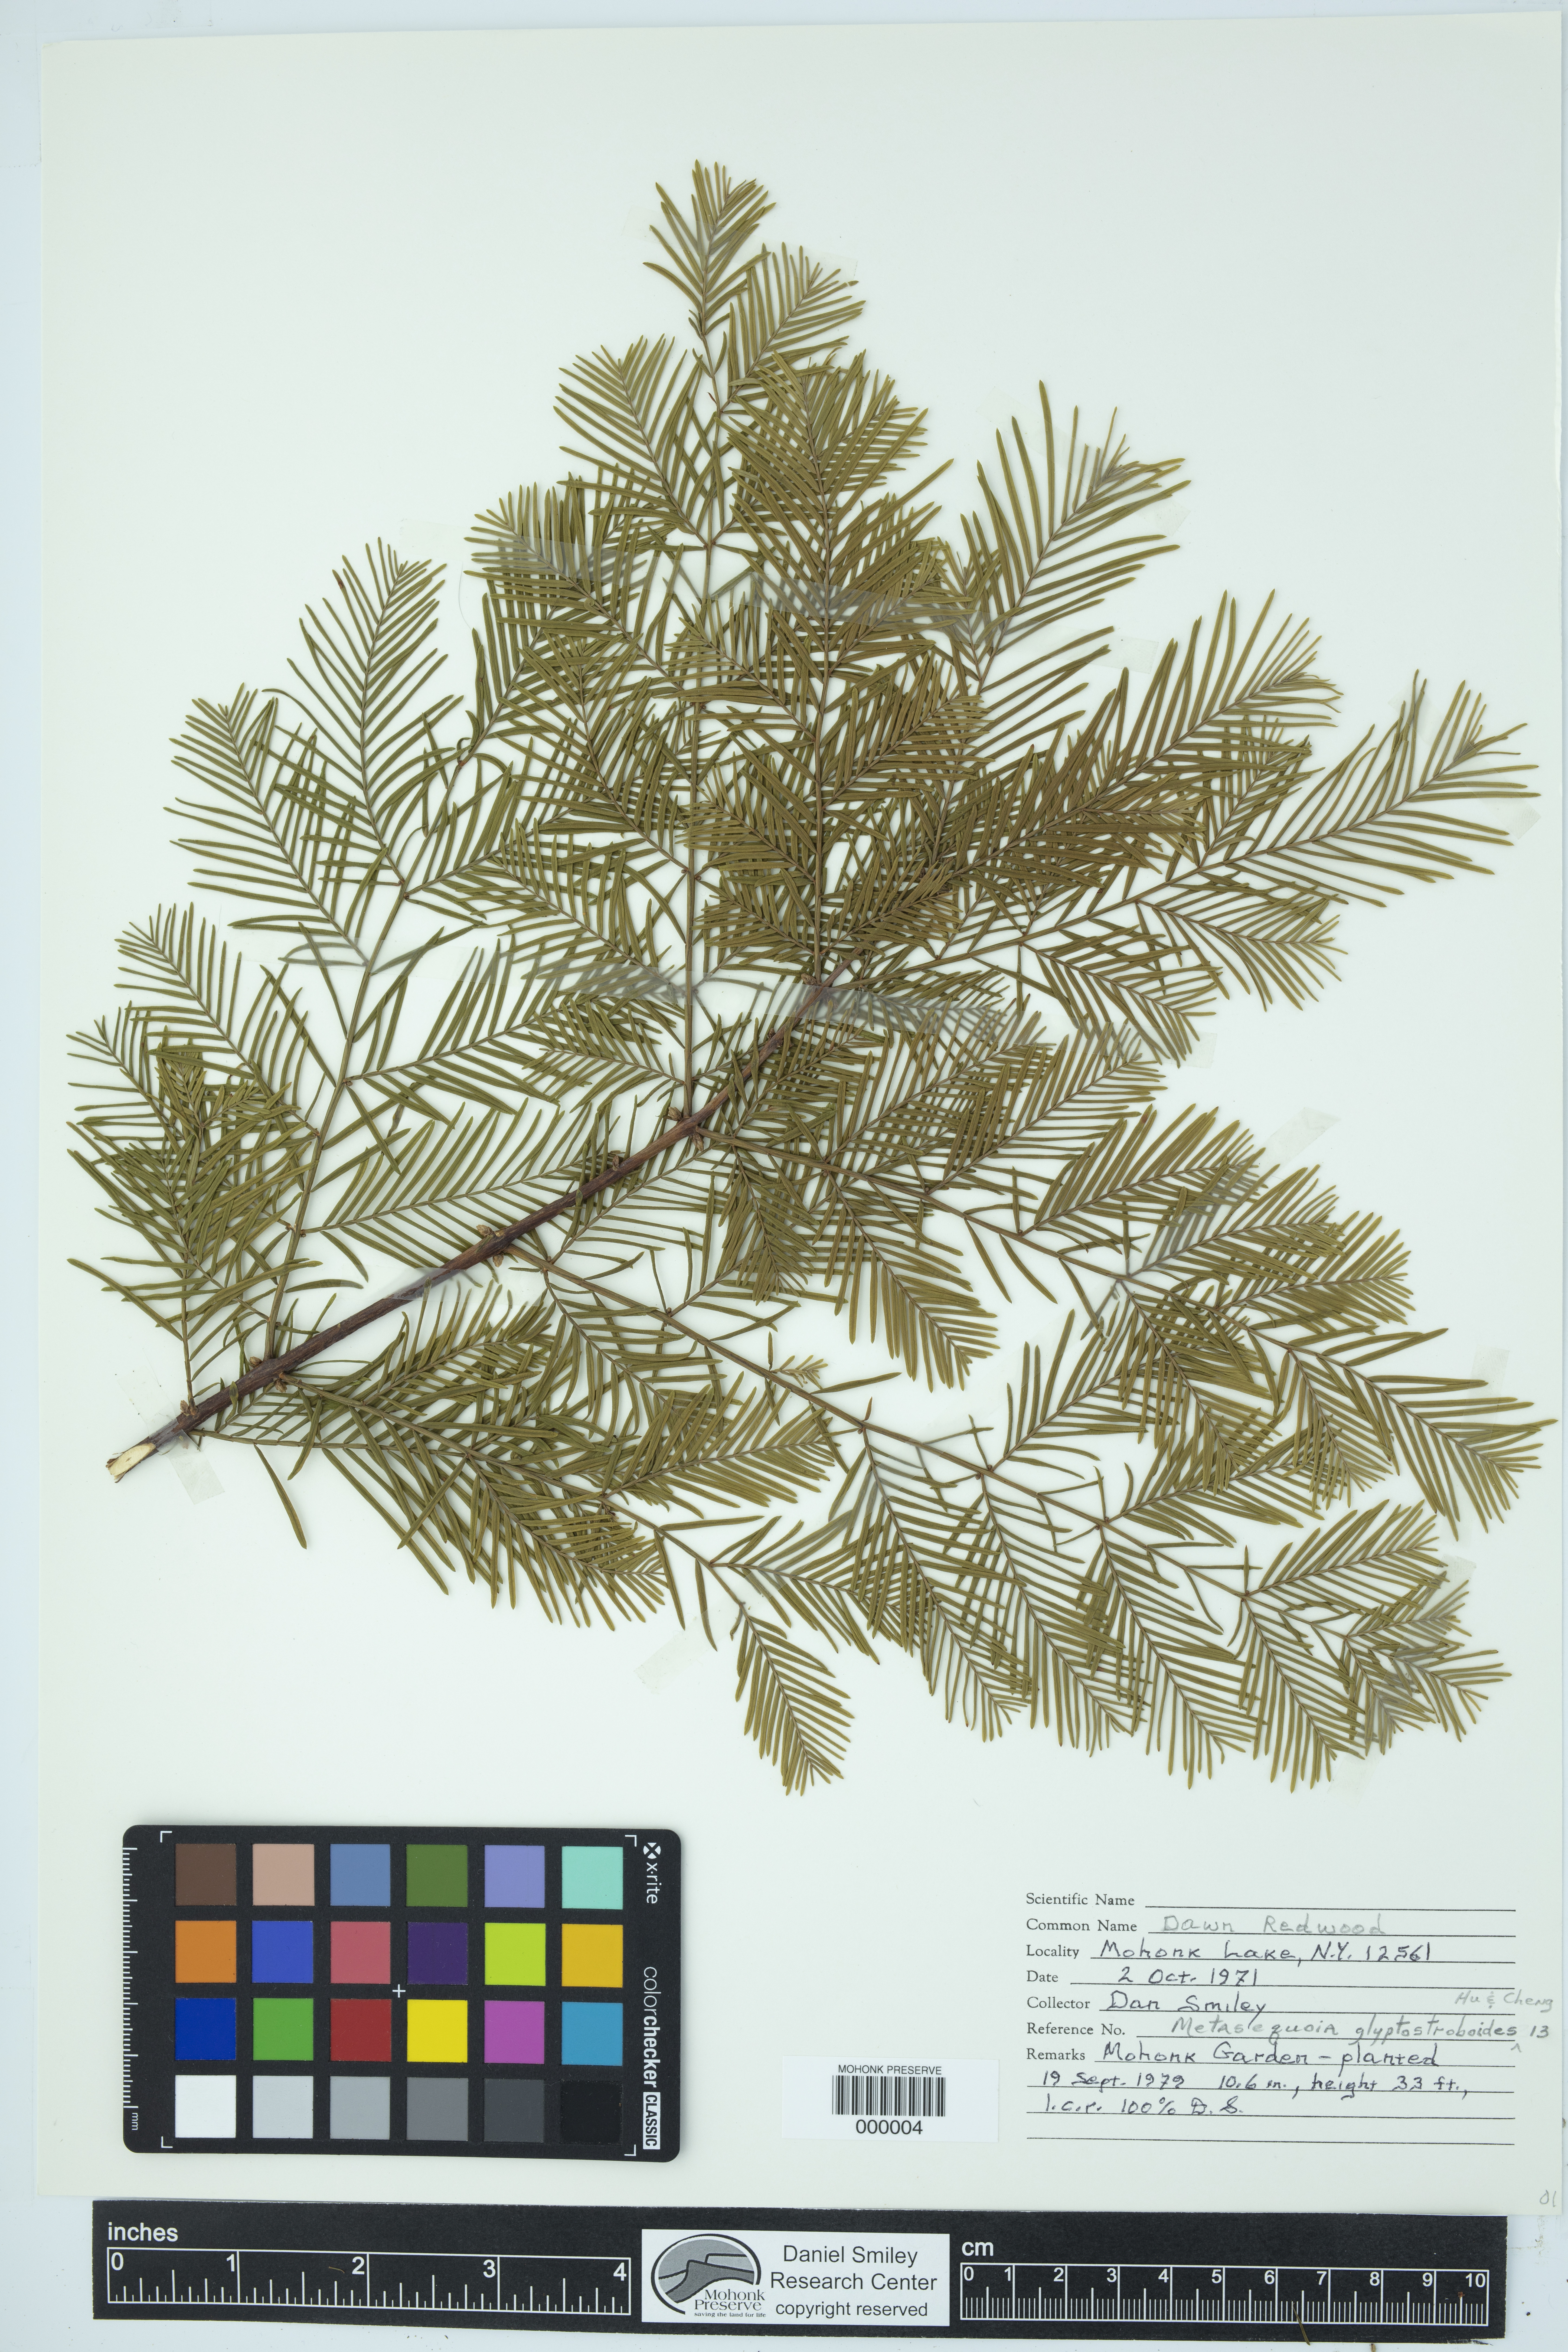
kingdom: Plantae
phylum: Tracheophyta
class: Pinopsida
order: Pinales
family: Cupressaceae
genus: Metasequoia
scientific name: Metasequoia glyptostroboides
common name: Dawn redwood
